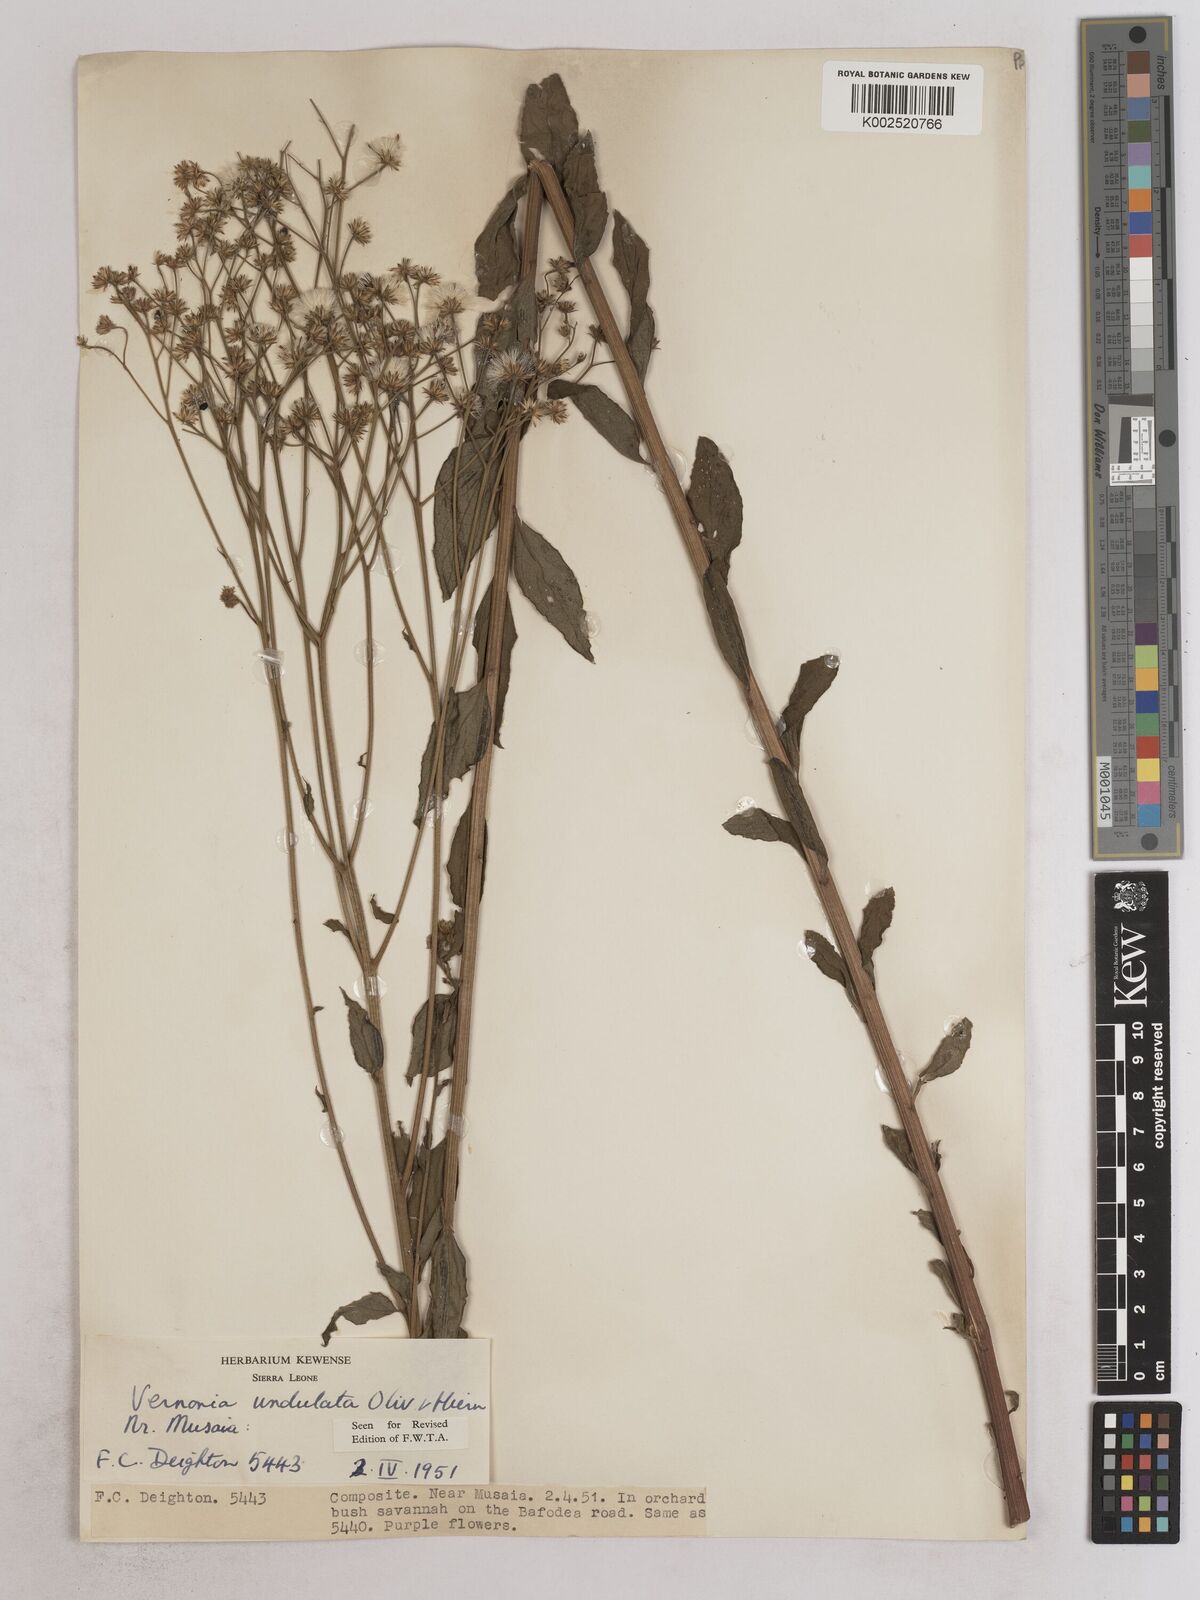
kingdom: Plantae
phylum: Tracheophyta
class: Magnoliopsida
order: Asterales
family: Asteraceae
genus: Vernonia
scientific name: Vernonia golungensis
